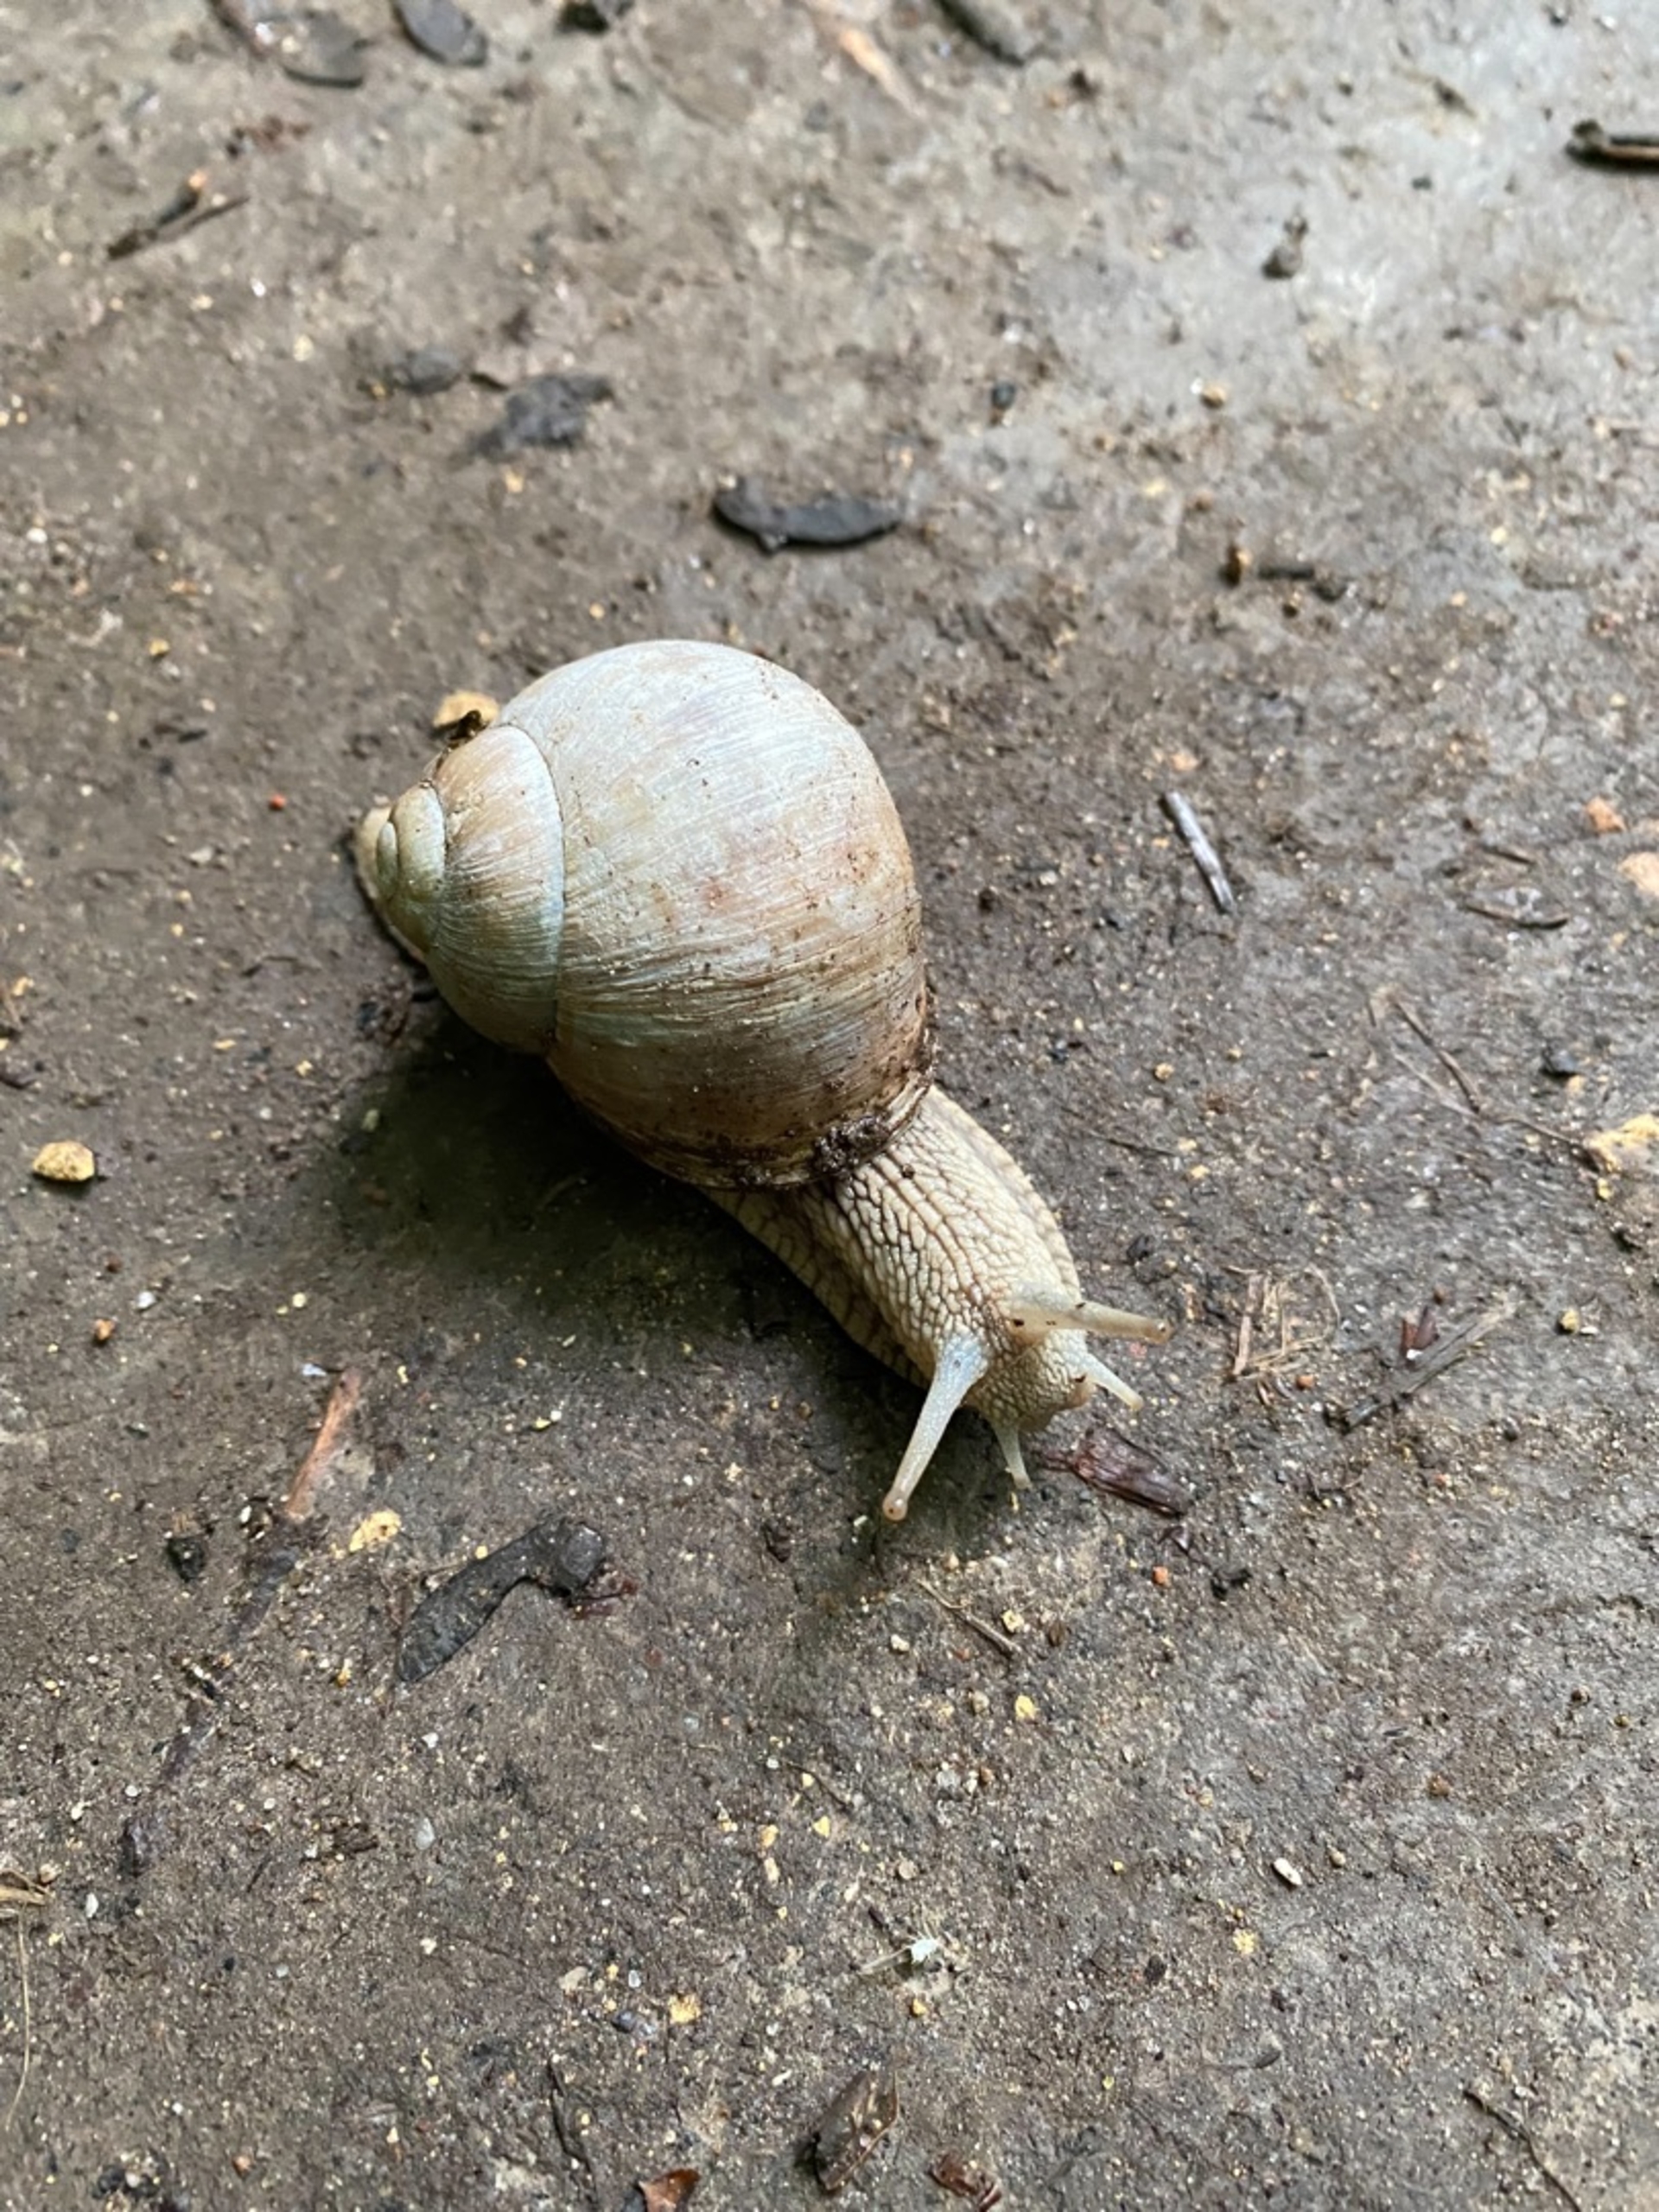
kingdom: Animalia
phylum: Mollusca
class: Gastropoda
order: Stylommatophora
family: Helicidae
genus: Helix
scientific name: Helix pomatia
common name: Vinbjergsnegl
